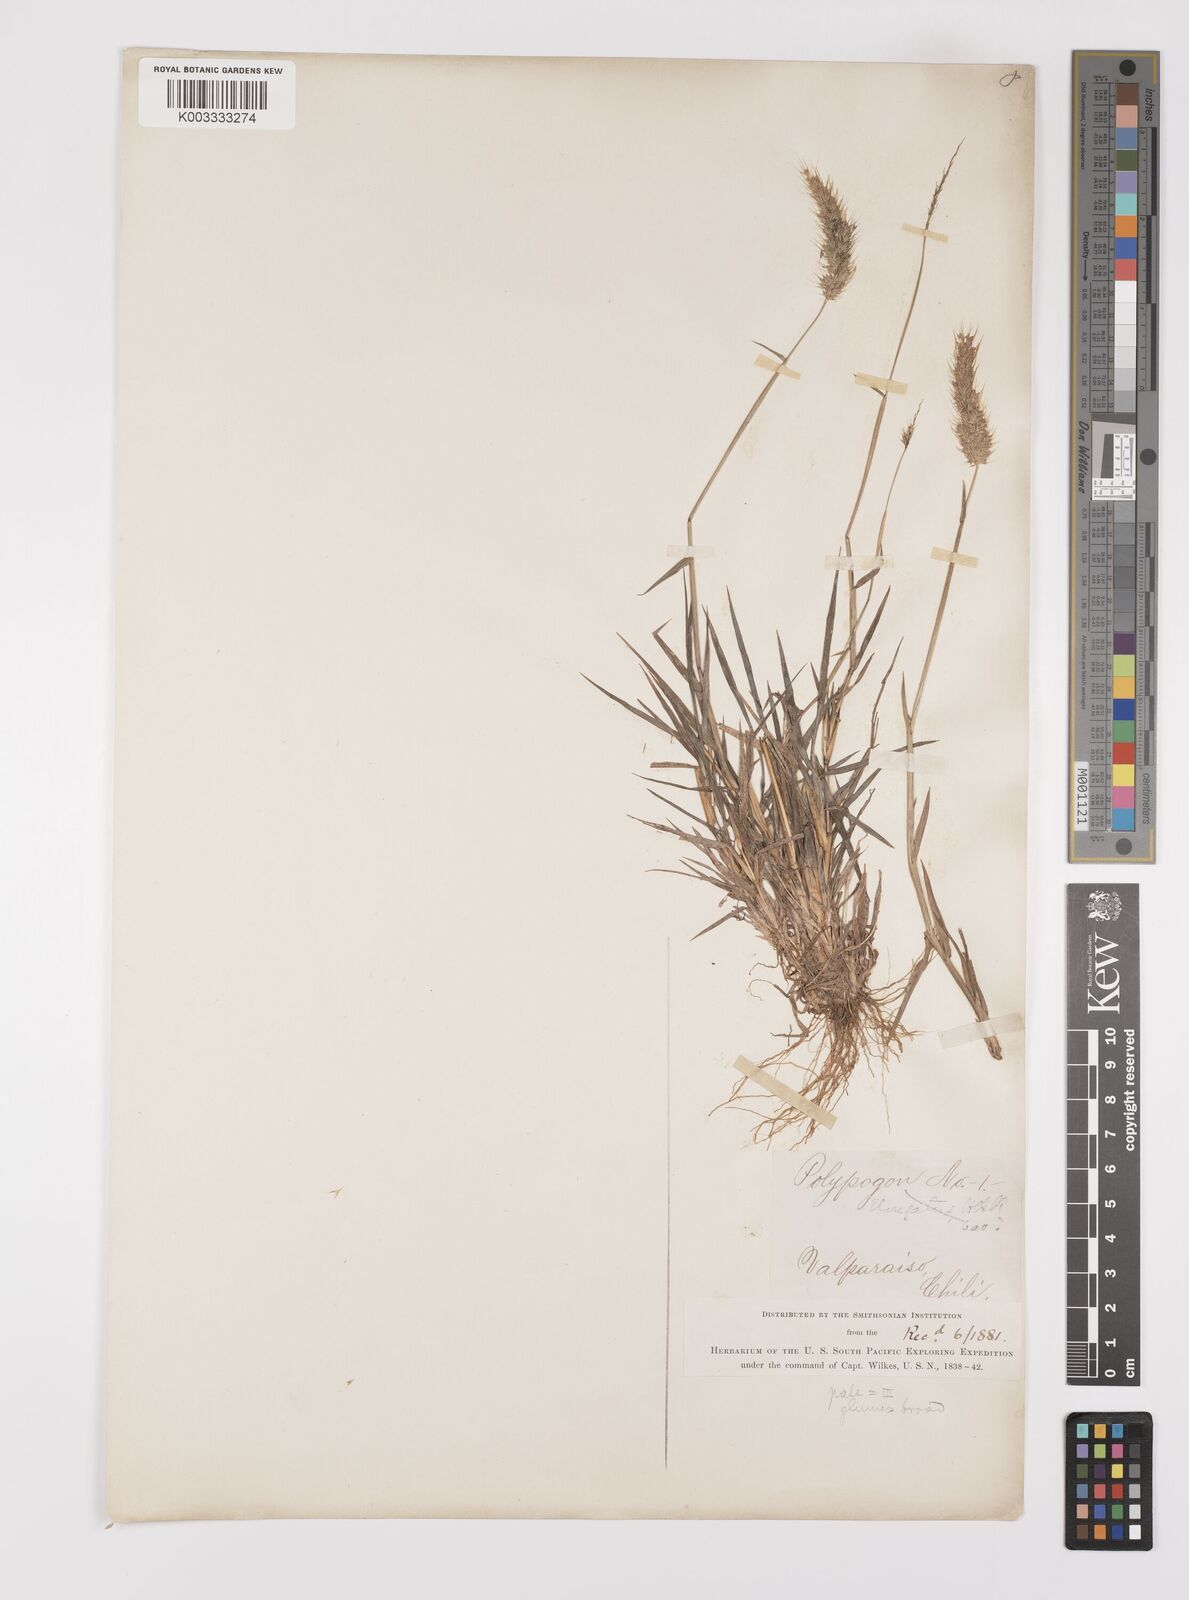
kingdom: Plantae
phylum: Tracheophyta
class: Liliopsida
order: Poales
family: Poaceae
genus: Polypogon
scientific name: Polypogon interruptus
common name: Ditch polypogon
